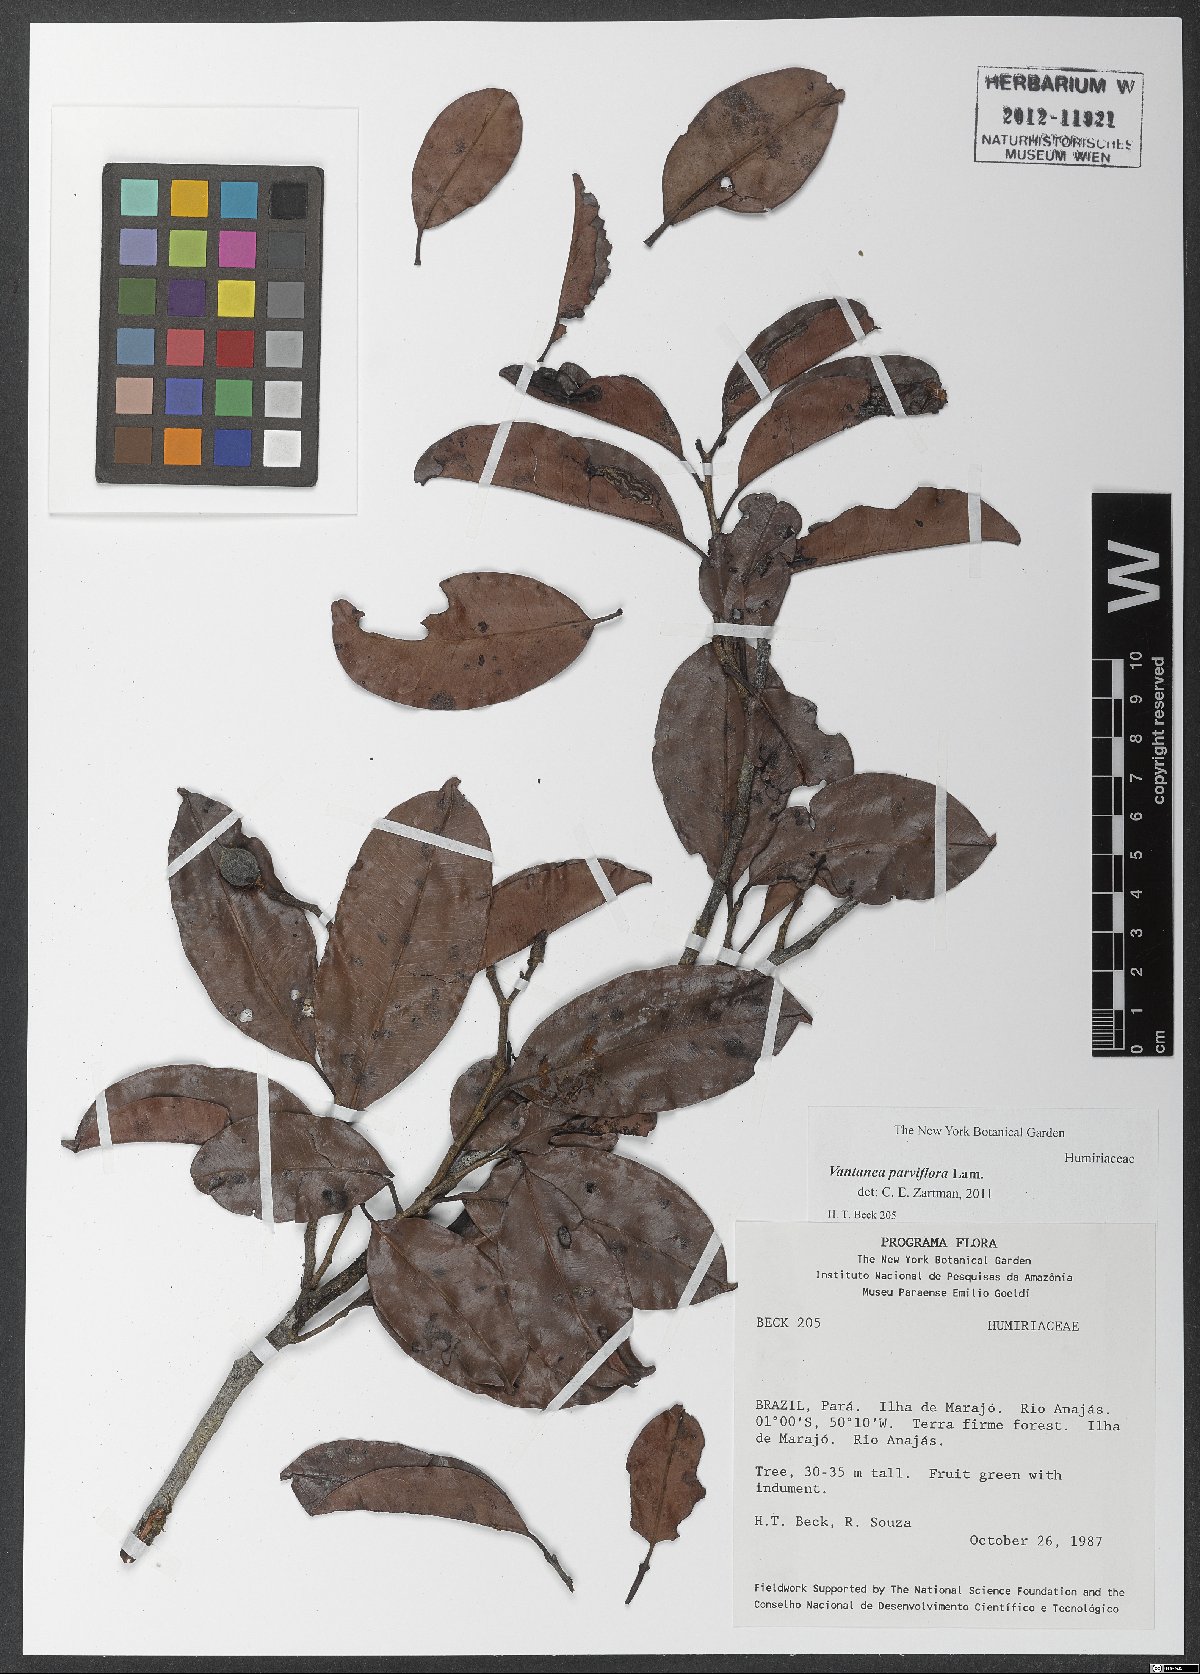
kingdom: Plantae
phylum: Tracheophyta
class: Magnoliopsida
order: Malpighiales
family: Humiriaceae
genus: Vantanea
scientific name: Vantanea parviflora
